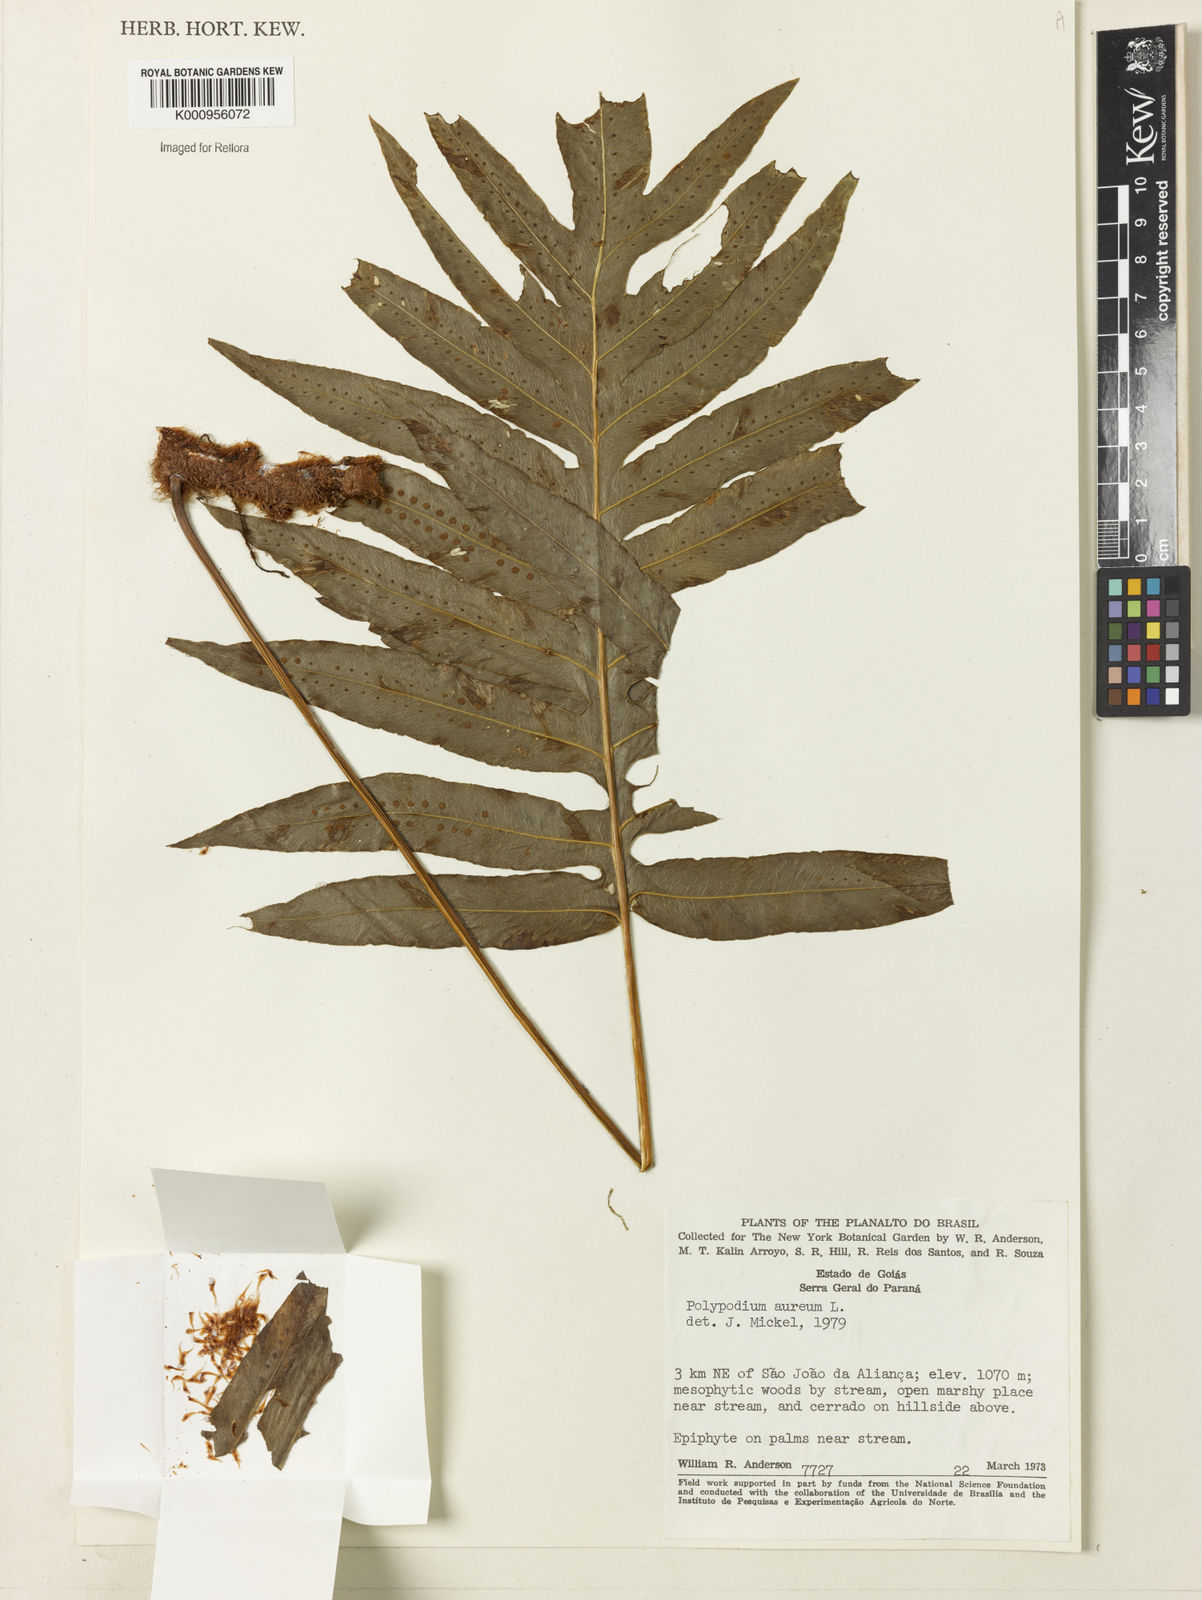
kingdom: Plantae
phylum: Tracheophyta
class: Polypodiopsida
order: Polypodiales
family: Polypodiaceae
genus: Phlebodium
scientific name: Phlebodium aureum
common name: Gold-foot fern
